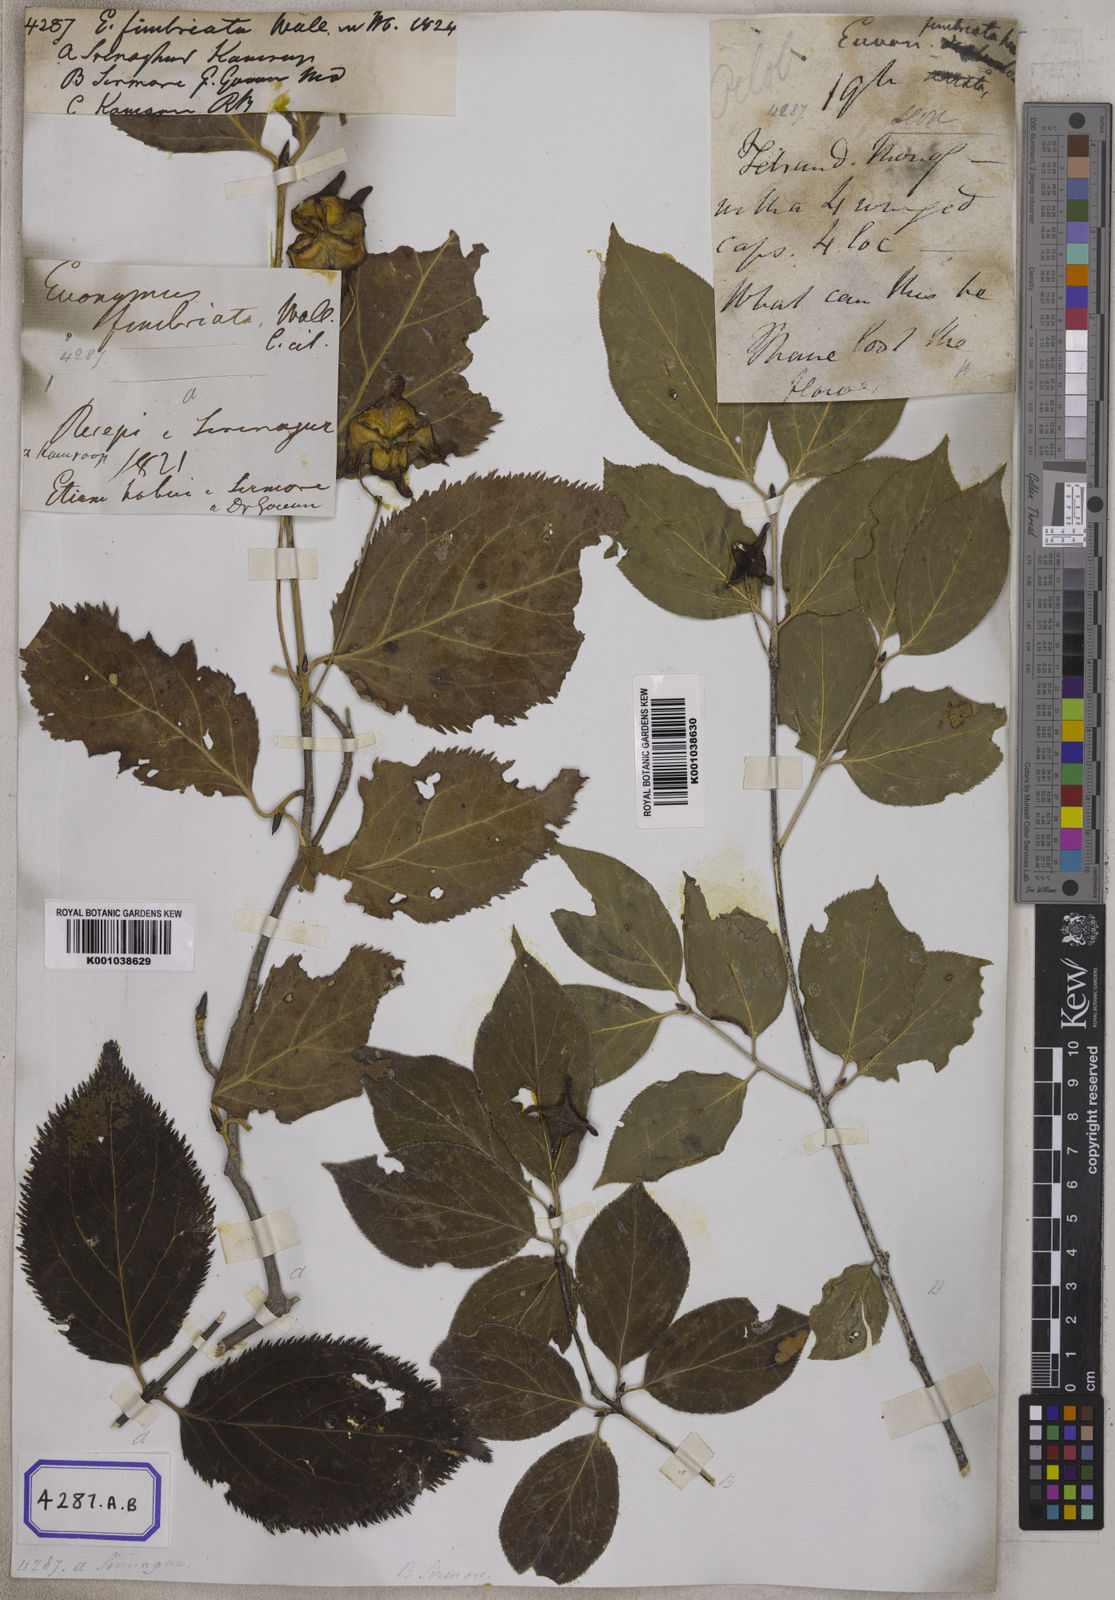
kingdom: Plantae
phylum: Tracheophyta
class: Magnoliopsida
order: Celastrales
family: Celastraceae
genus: Euonymus
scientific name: Euonymus fimbriatus
